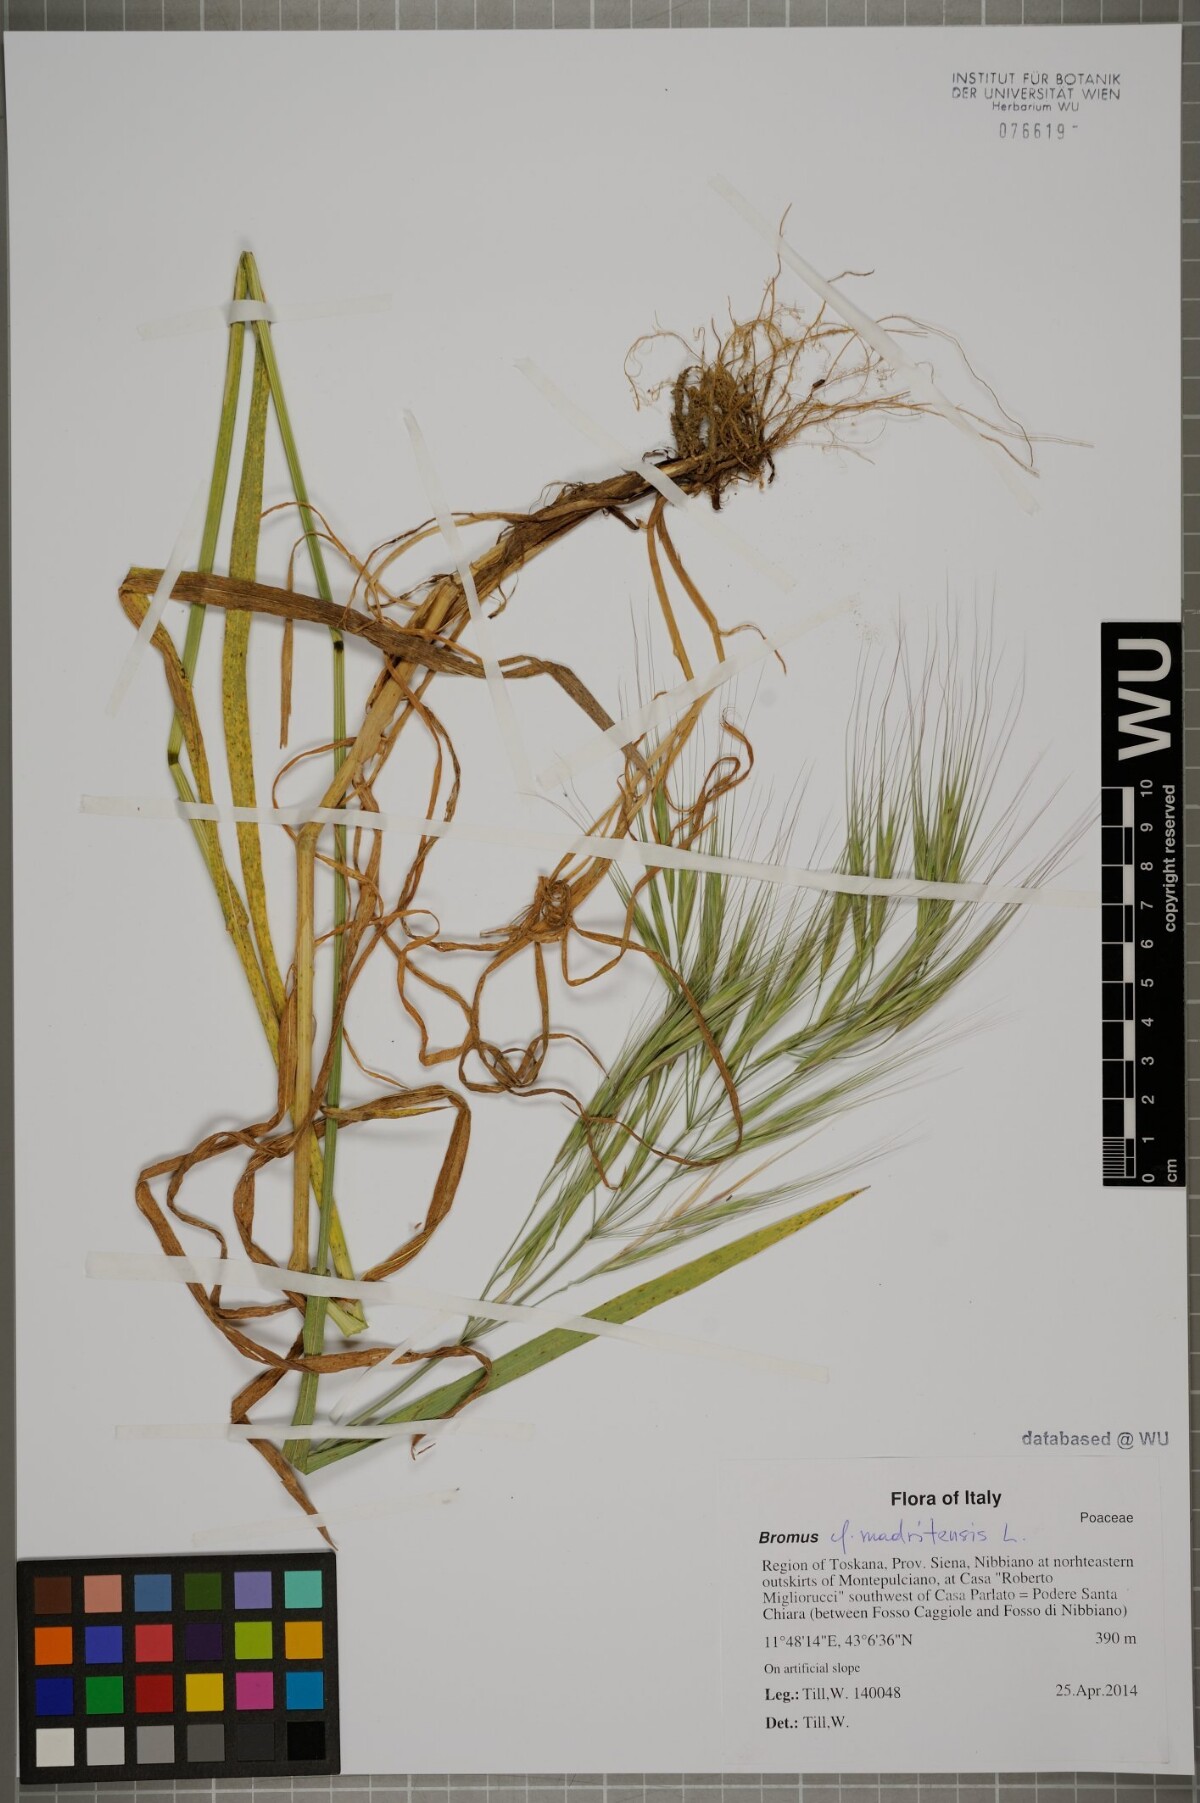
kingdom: Plantae
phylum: Tracheophyta
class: Liliopsida
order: Poales
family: Poaceae
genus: Bromus
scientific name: Bromus madritensis
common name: Compact brome
